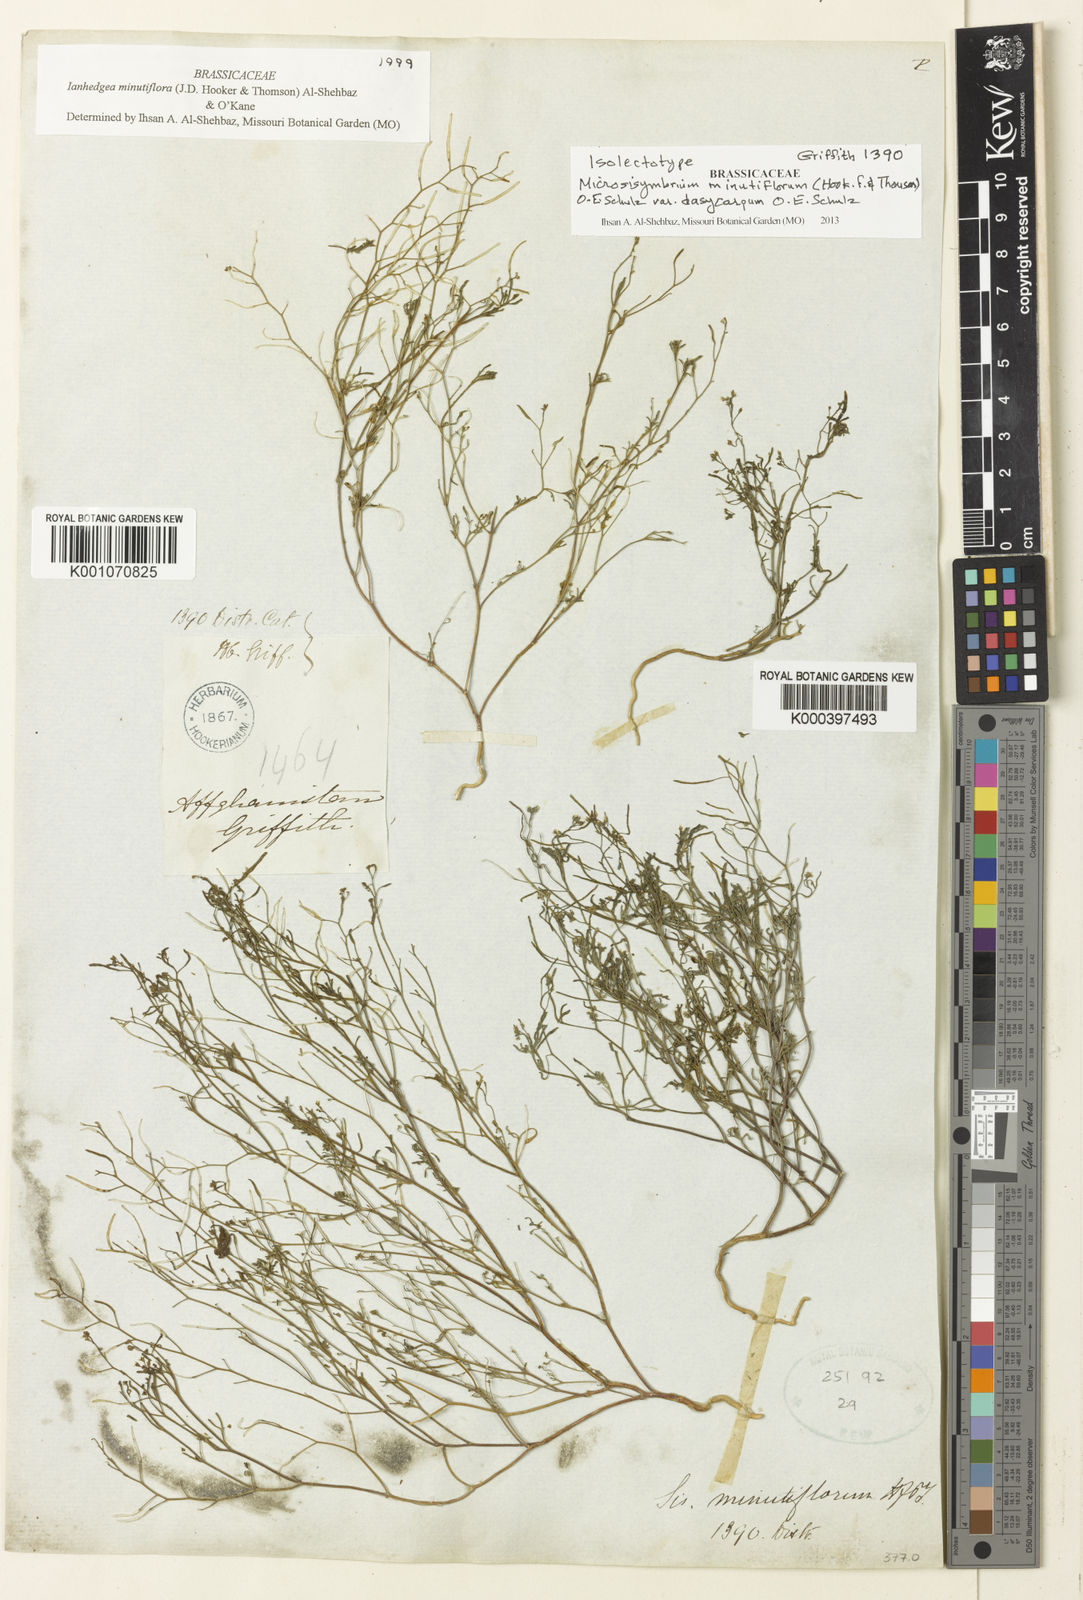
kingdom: Plantae
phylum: Tracheophyta
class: Magnoliopsida
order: Brassicales
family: Brassicaceae
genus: Ianhedgea
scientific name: Ianhedgea minutiflora
